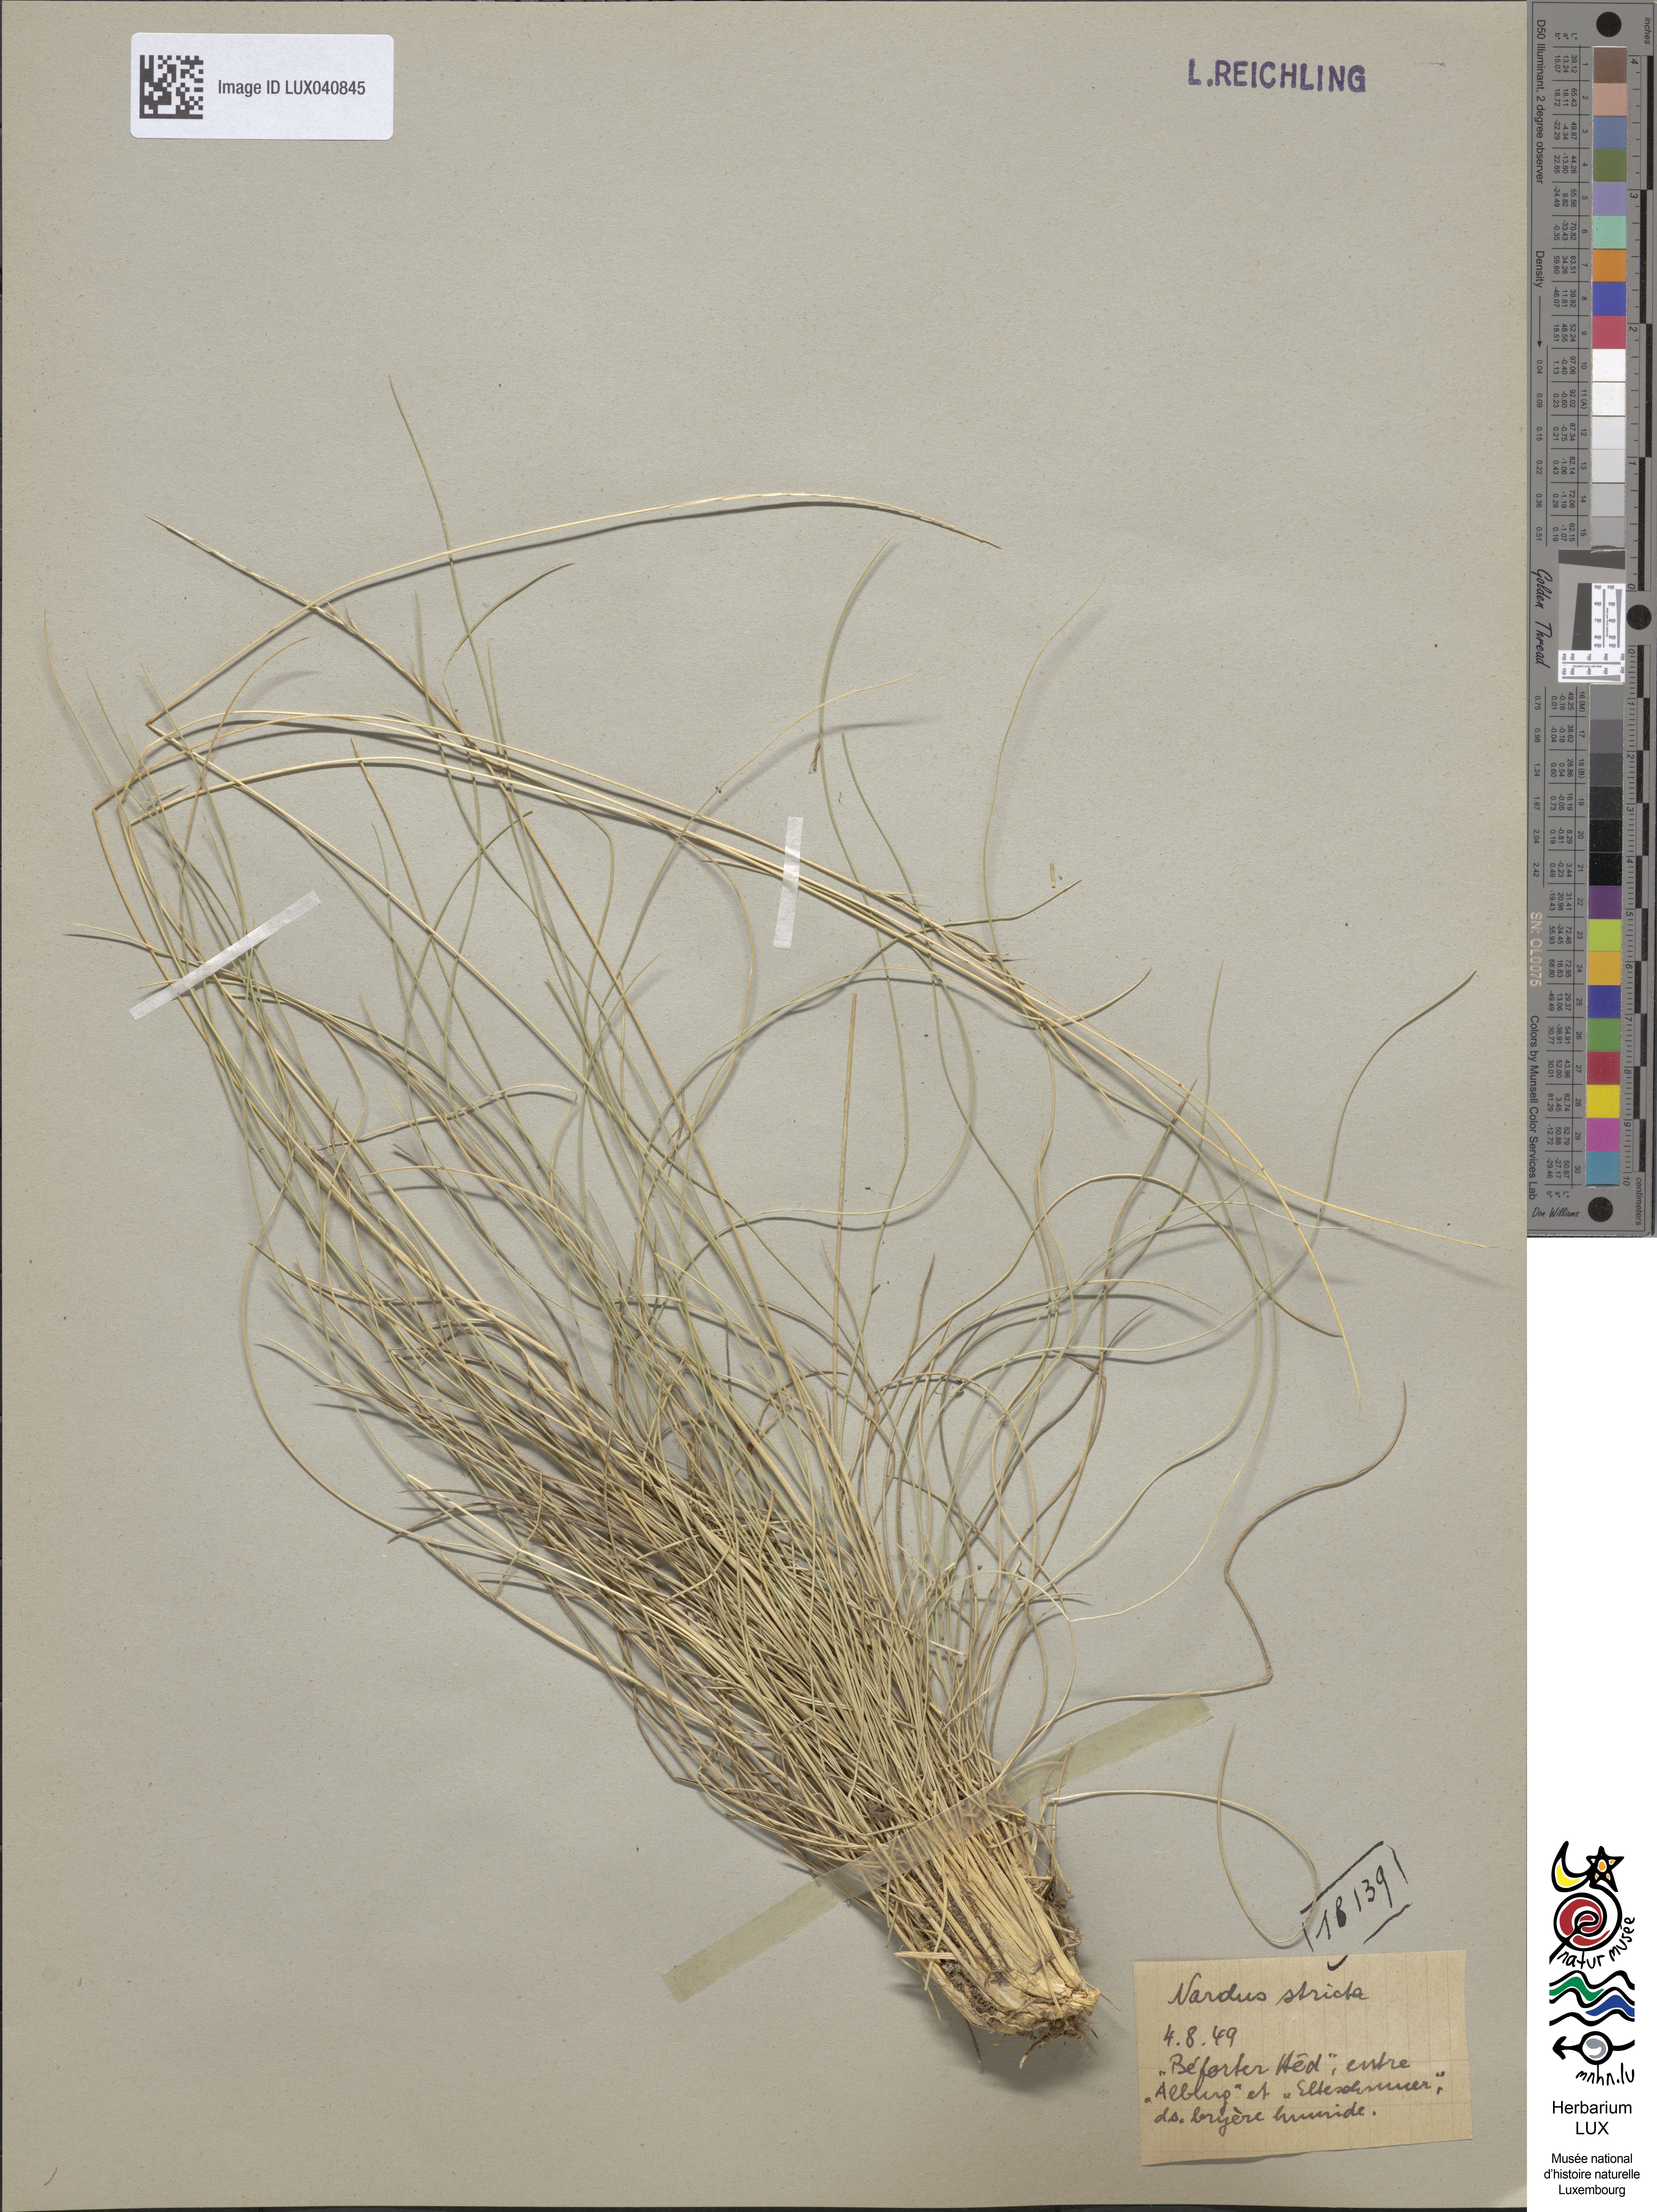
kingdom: Plantae
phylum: Tracheophyta
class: Liliopsida
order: Poales
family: Poaceae
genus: Nardus
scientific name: Nardus stricta
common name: Mat-grass
